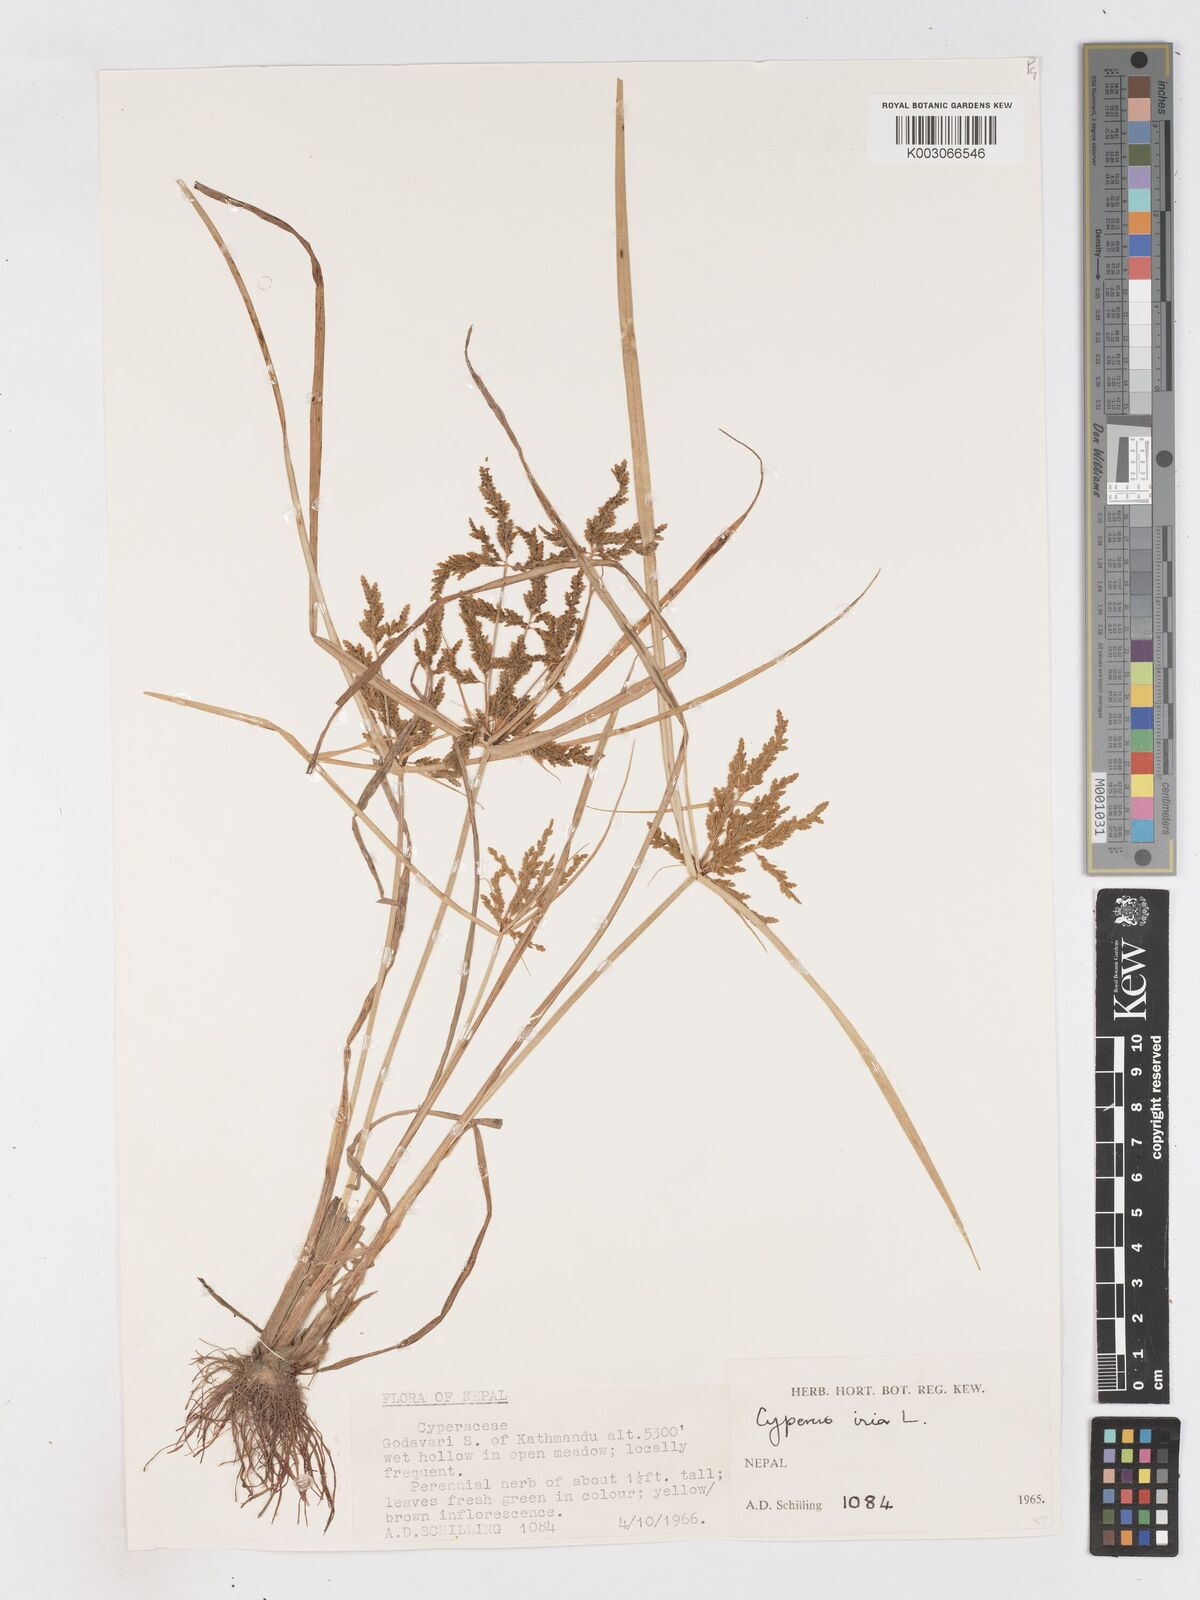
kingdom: Plantae
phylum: Tracheophyta
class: Liliopsida
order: Poales
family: Cyperaceae
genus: Cyperus
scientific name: Cyperus iria
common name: Ricefield flatsedge
